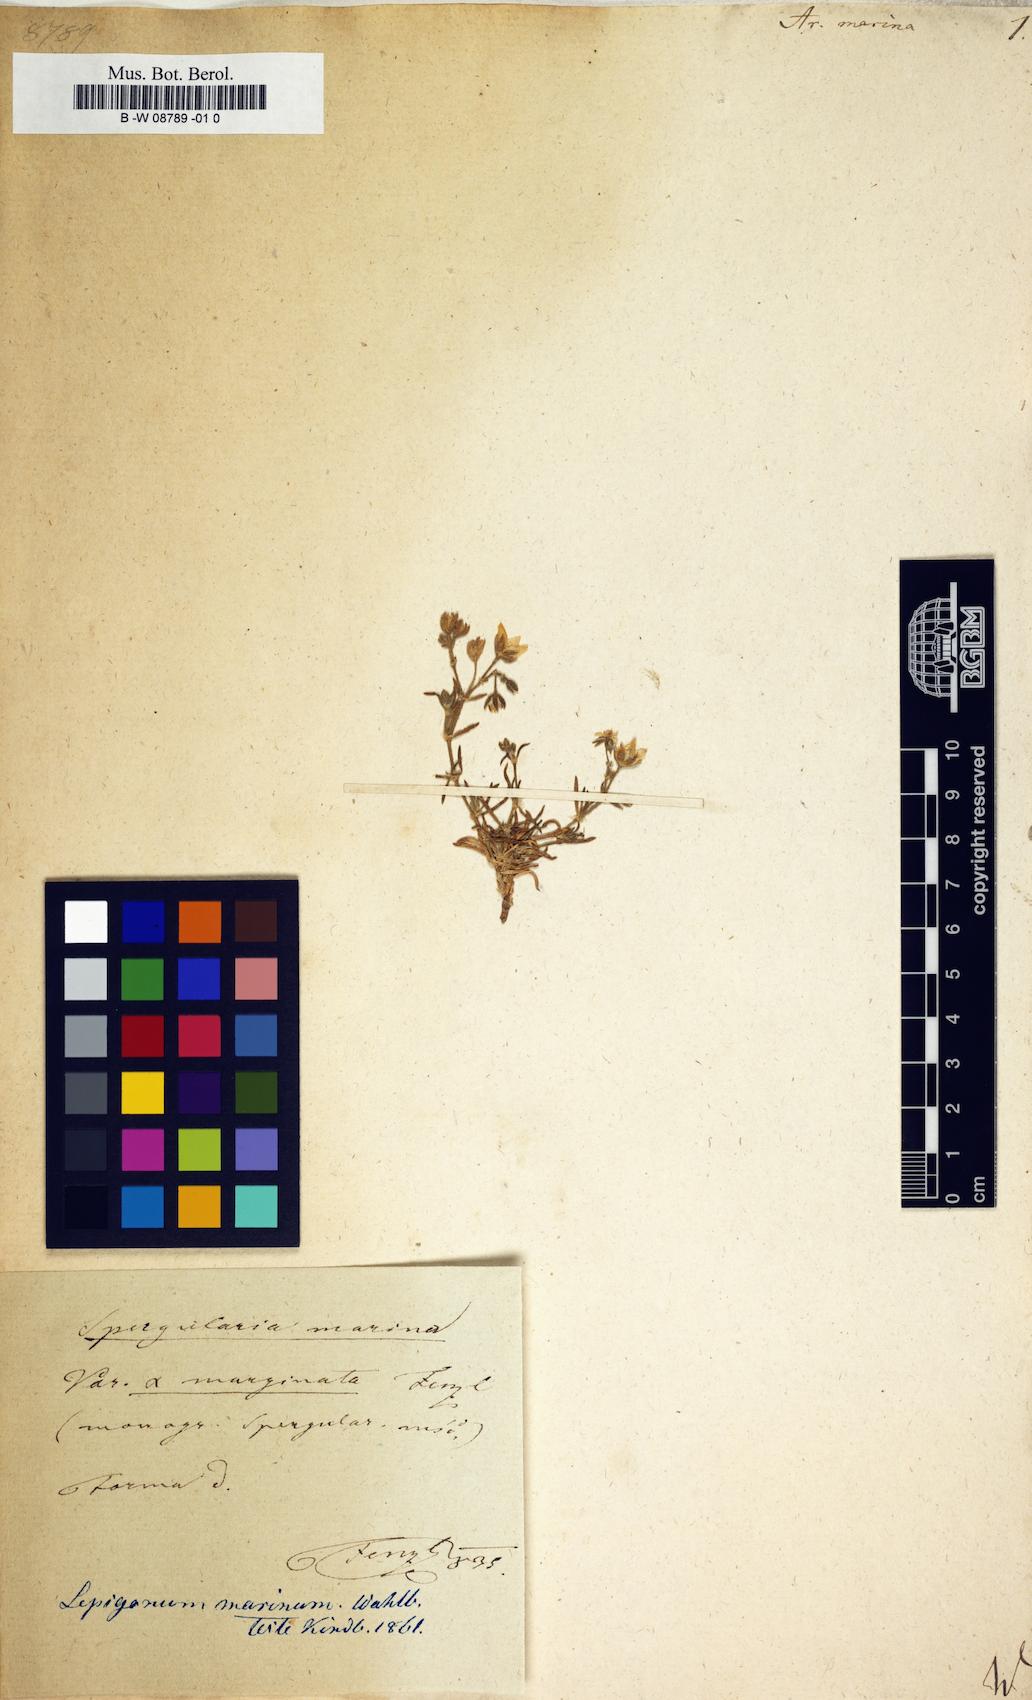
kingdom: Plantae
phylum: Tracheophyta
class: Magnoliopsida
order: Caryophyllales
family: Caryophyllaceae
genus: Arenaria
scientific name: Arenaria marina
